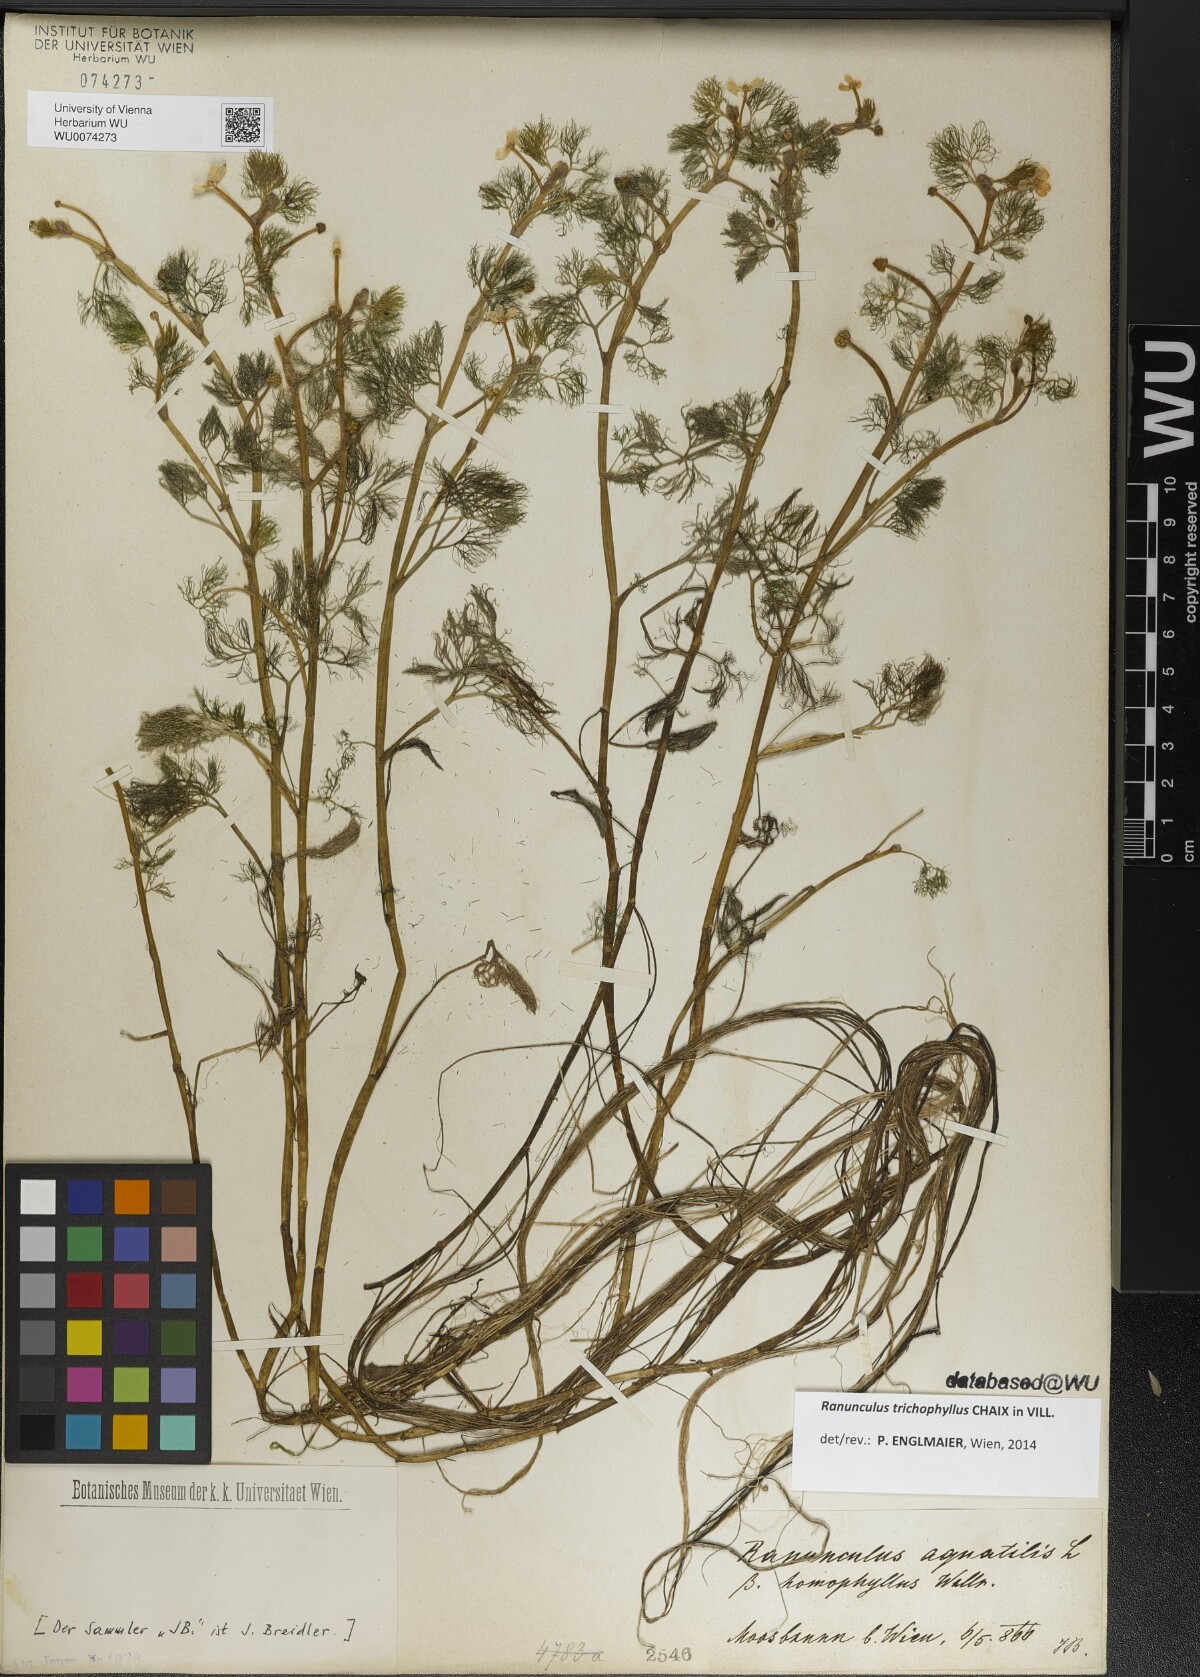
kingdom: Plantae
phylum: Tracheophyta
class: Magnoliopsida
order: Ranunculales
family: Ranunculaceae
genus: Ranunculus
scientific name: Ranunculus trichophyllus
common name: Thread-leaved water-crowfoot
